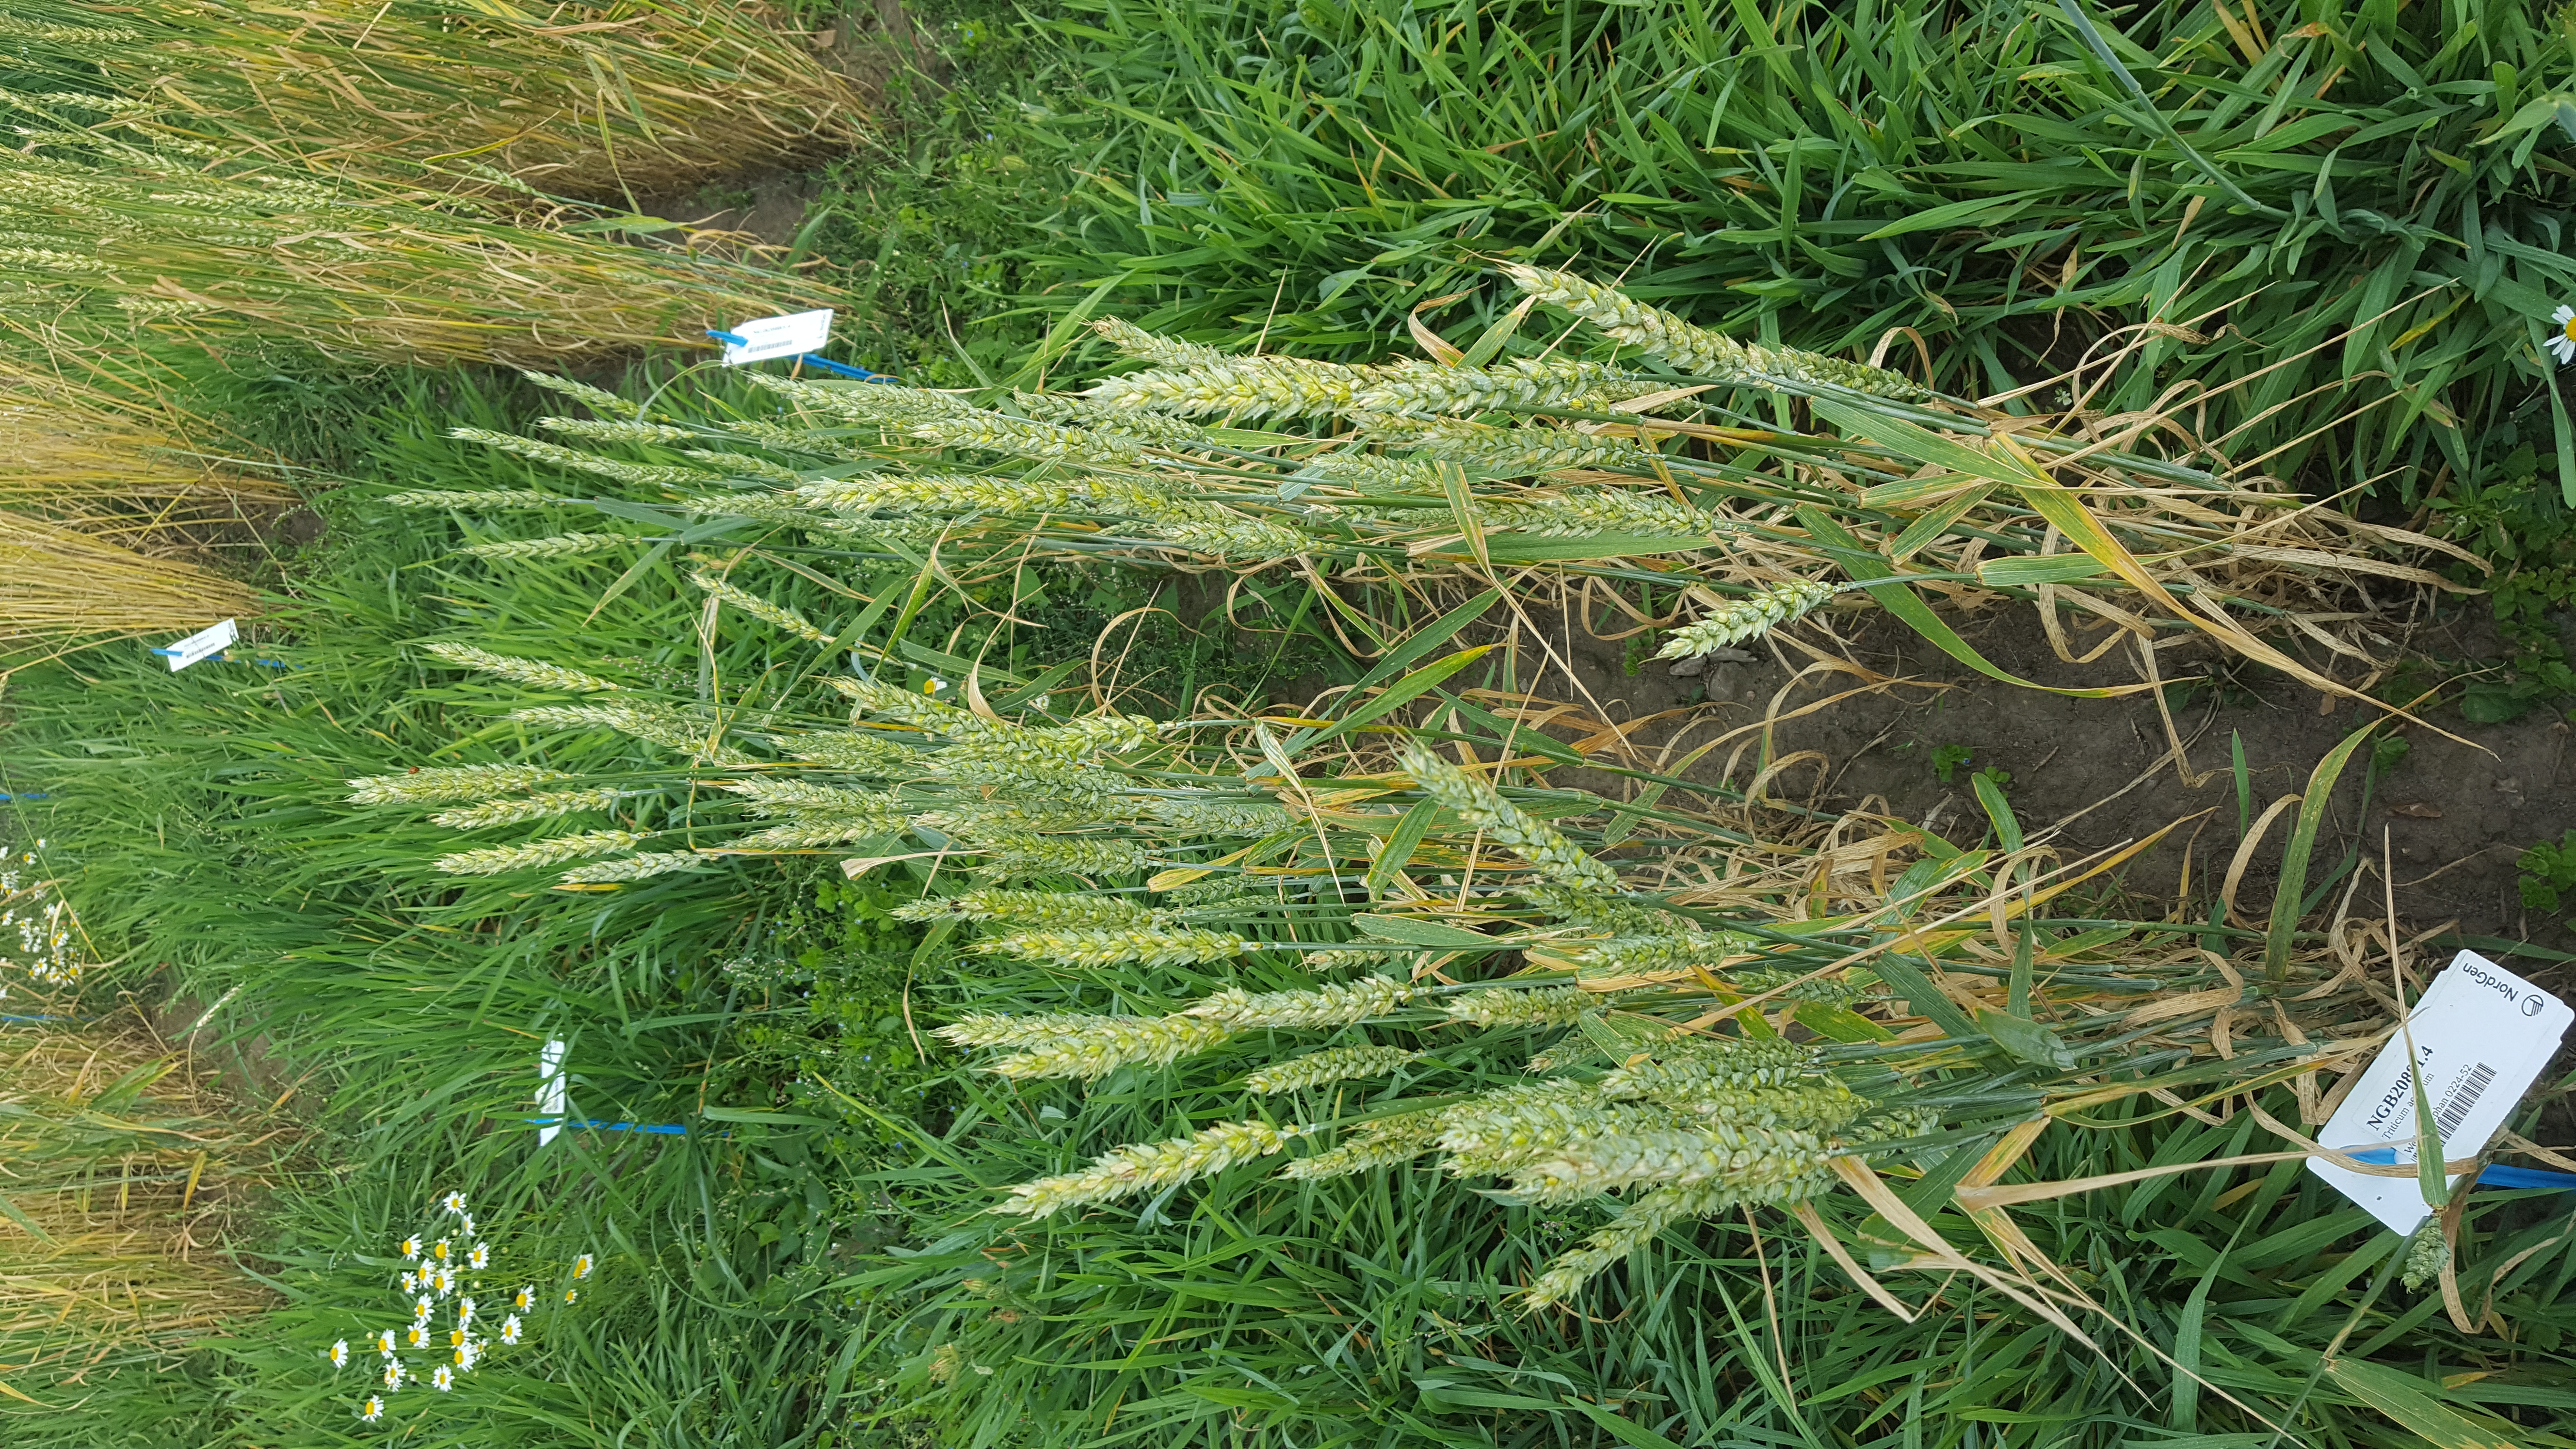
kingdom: Plantae
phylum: Tracheophyta
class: Liliopsida
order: Poales
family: Poaceae
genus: Triticum
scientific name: Triticum aestivum
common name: Common wheat
